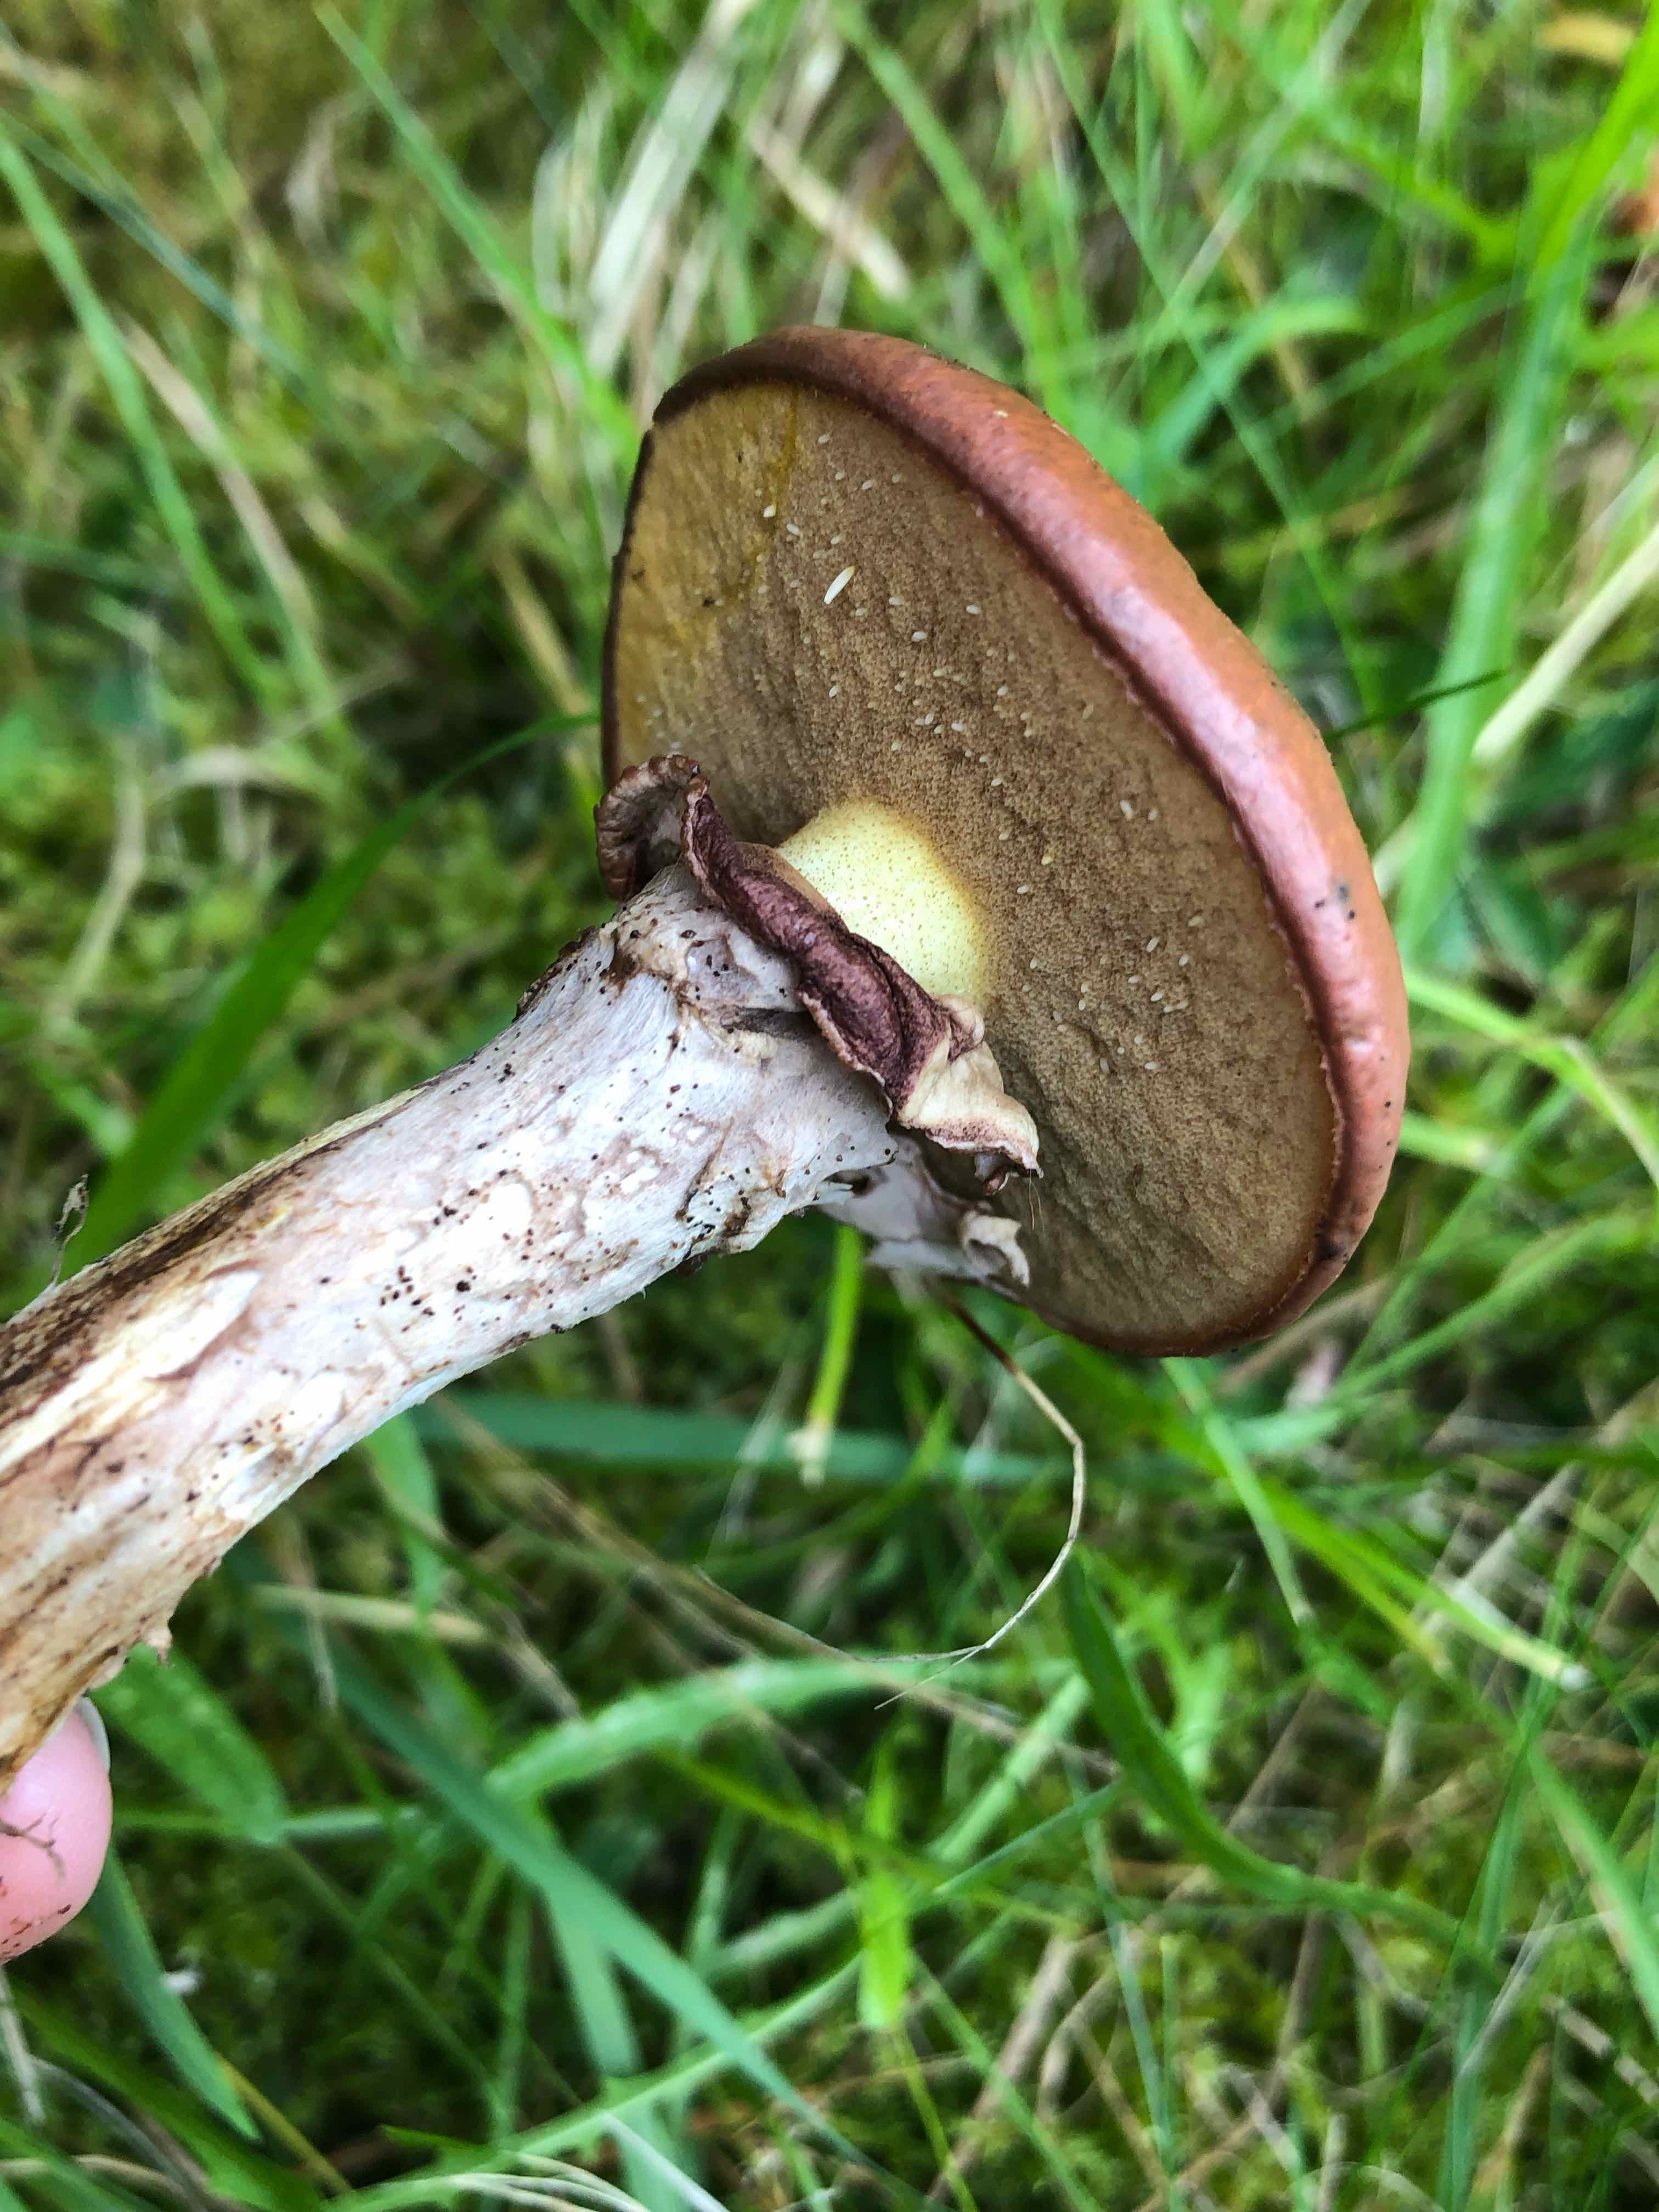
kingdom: Fungi
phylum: Basidiomycota
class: Agaricomycetes
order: Boletales
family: Suillaceae
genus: Suillus
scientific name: Suillus luteus
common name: brungul slimrørhat
